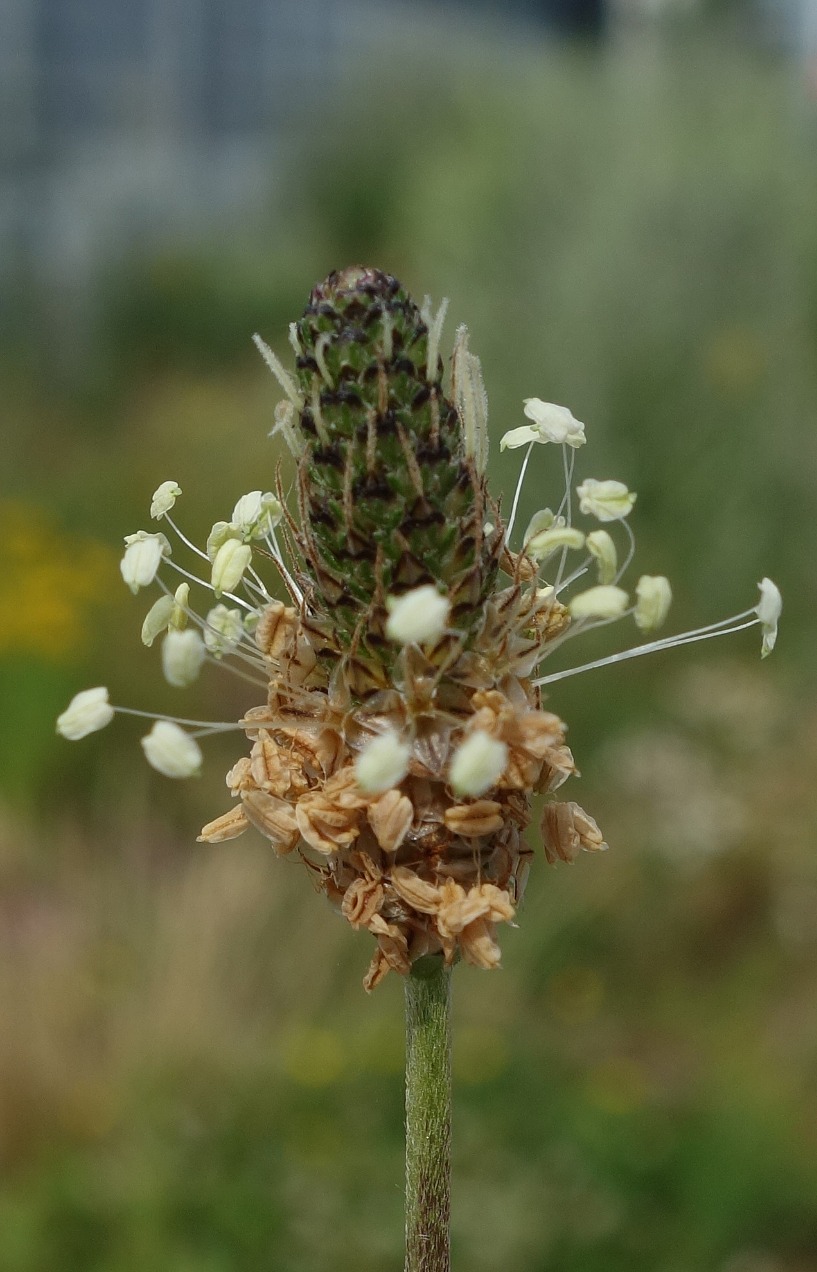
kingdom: Plantae
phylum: Tracheophyta
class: Magnoliopsida
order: Lamiales
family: Plantaginaceae
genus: Plantago
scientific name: Plantago lanceolata
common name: Lancet-vejbred
